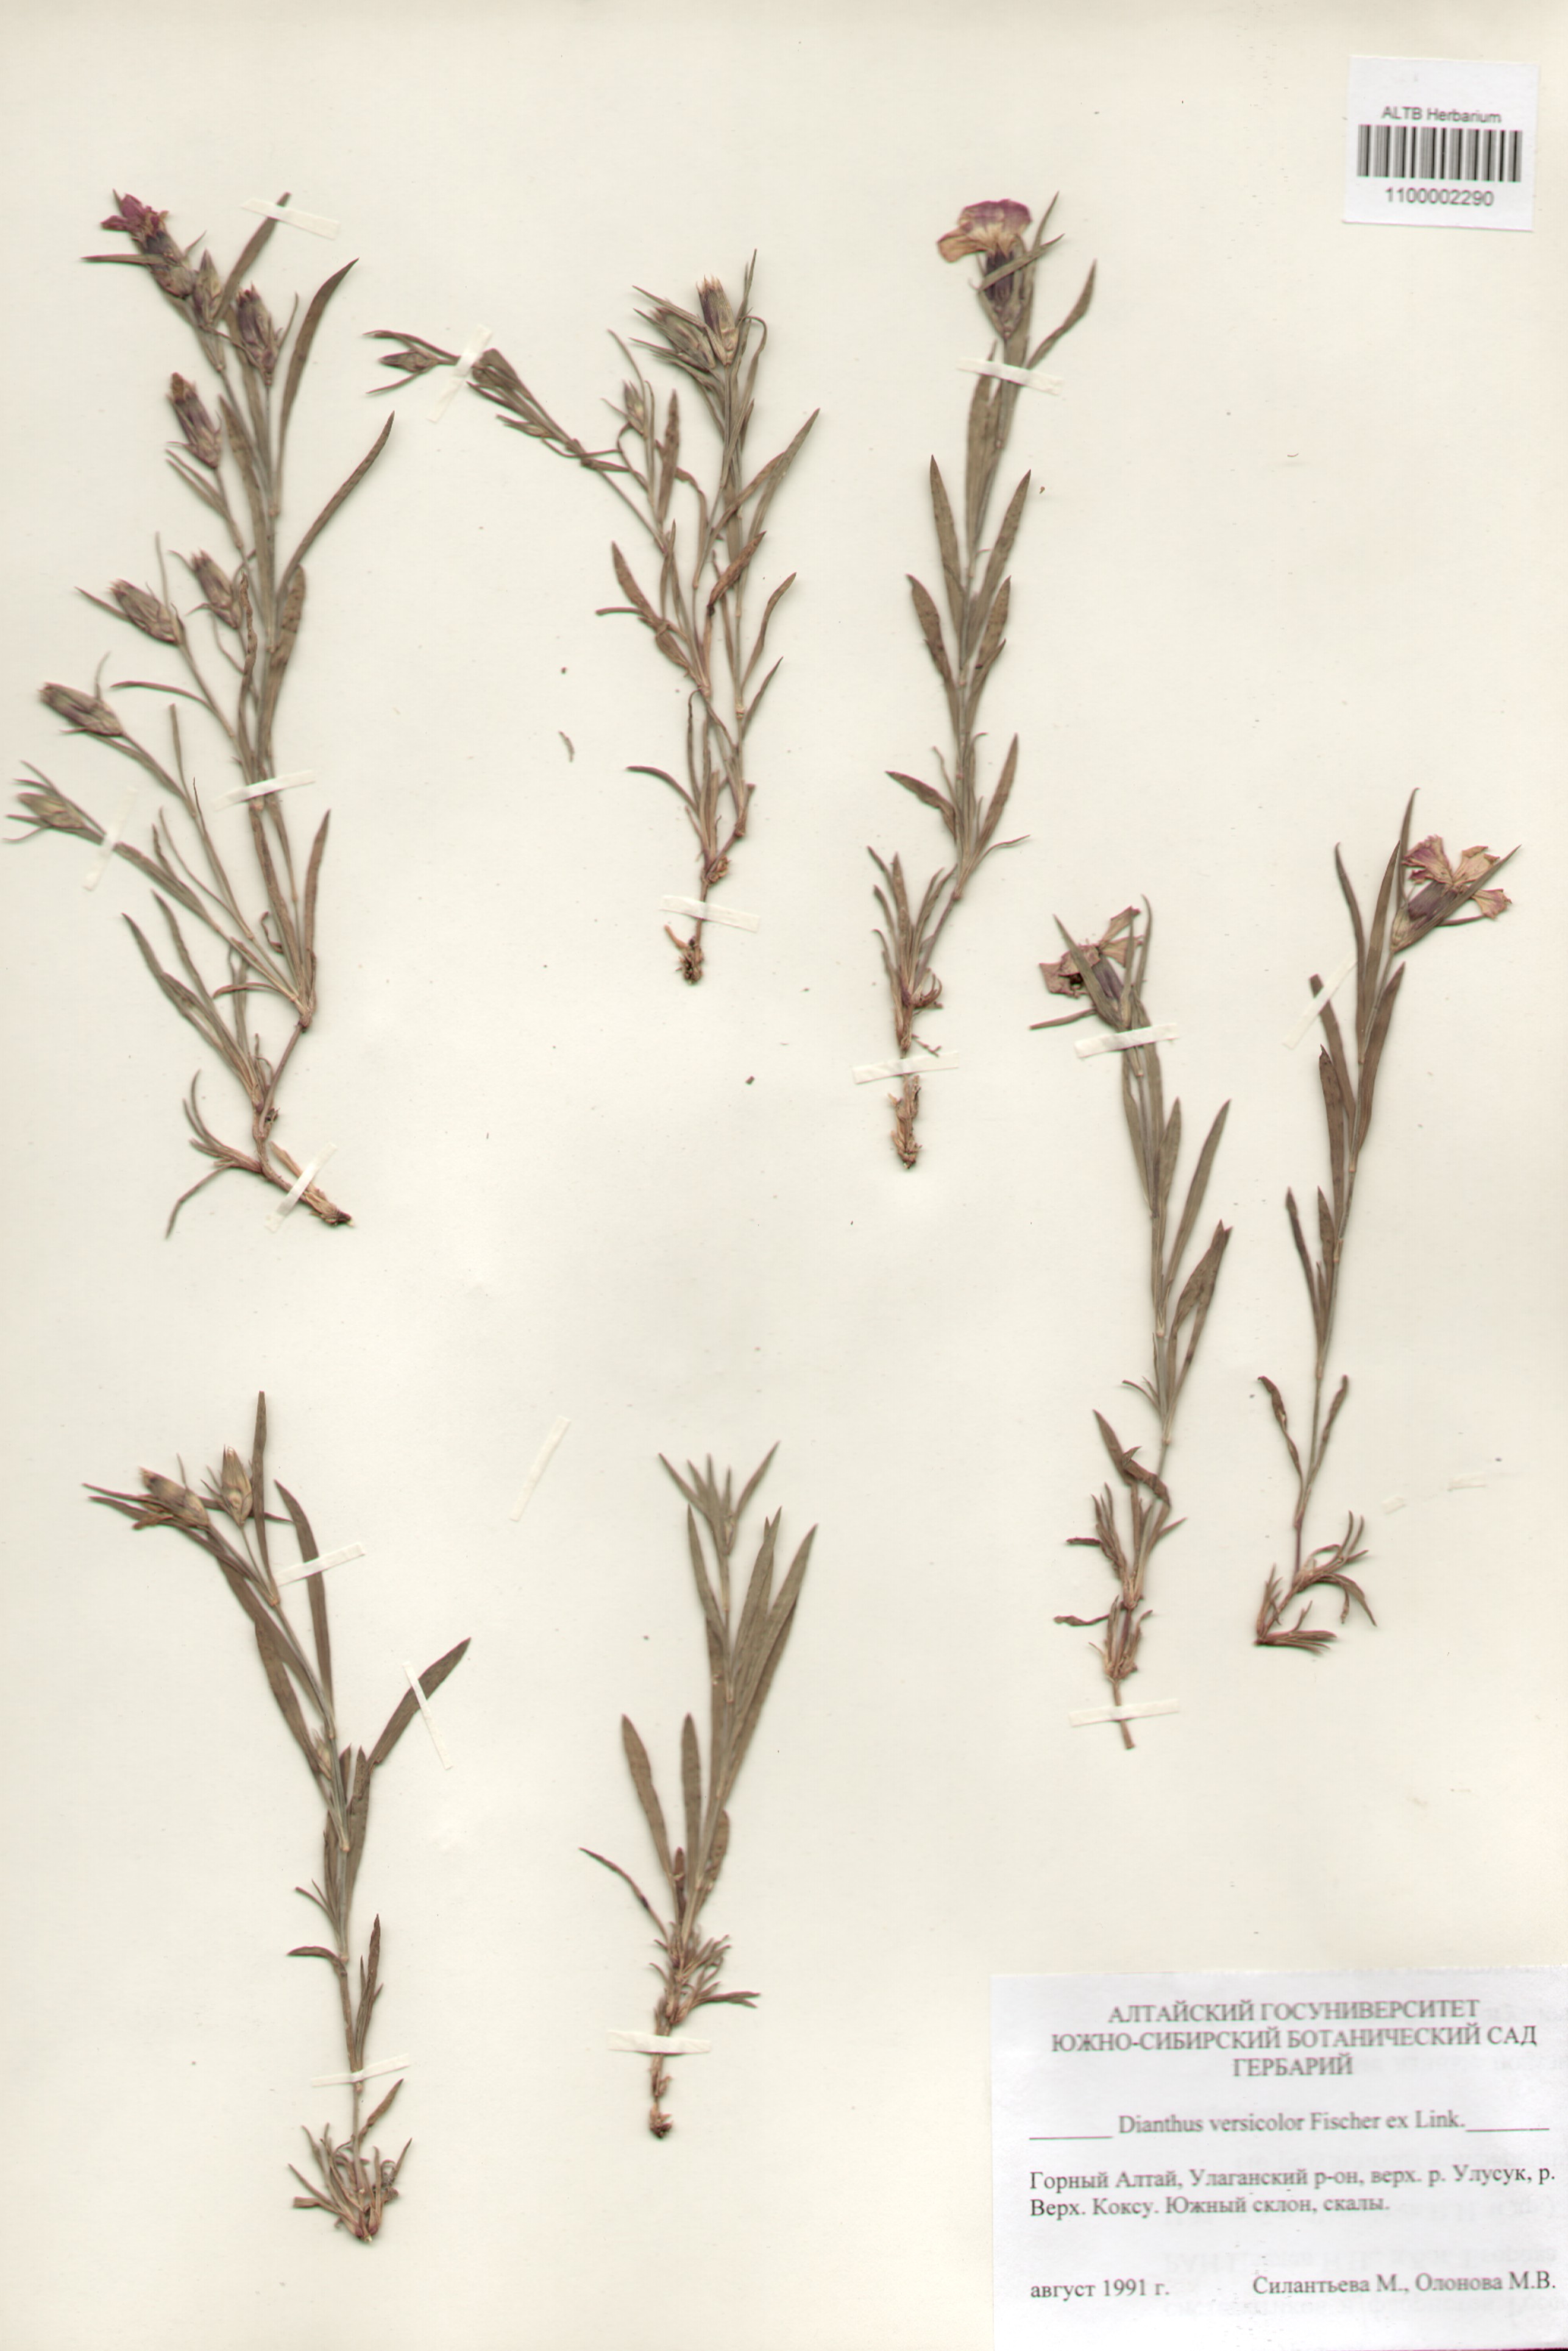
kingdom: Plantae
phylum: Tracheophyta
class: Magnoliopsida
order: Caryophyllales
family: Caryophyllaceae
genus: Dianthus
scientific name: Dianthus chinensis
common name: Rainbow pink
